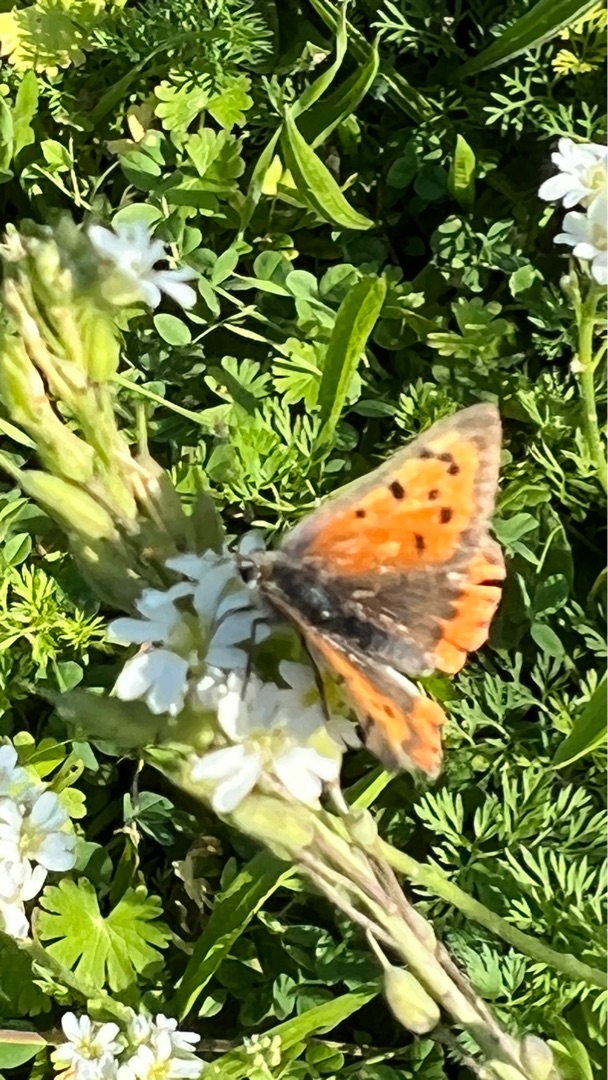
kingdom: Animalia
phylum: Arthropoda
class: Insecta
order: Lepidoptera
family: Lycaenidae
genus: Lycaena
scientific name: Lycaena phlaeas
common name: Lille ildfugl
